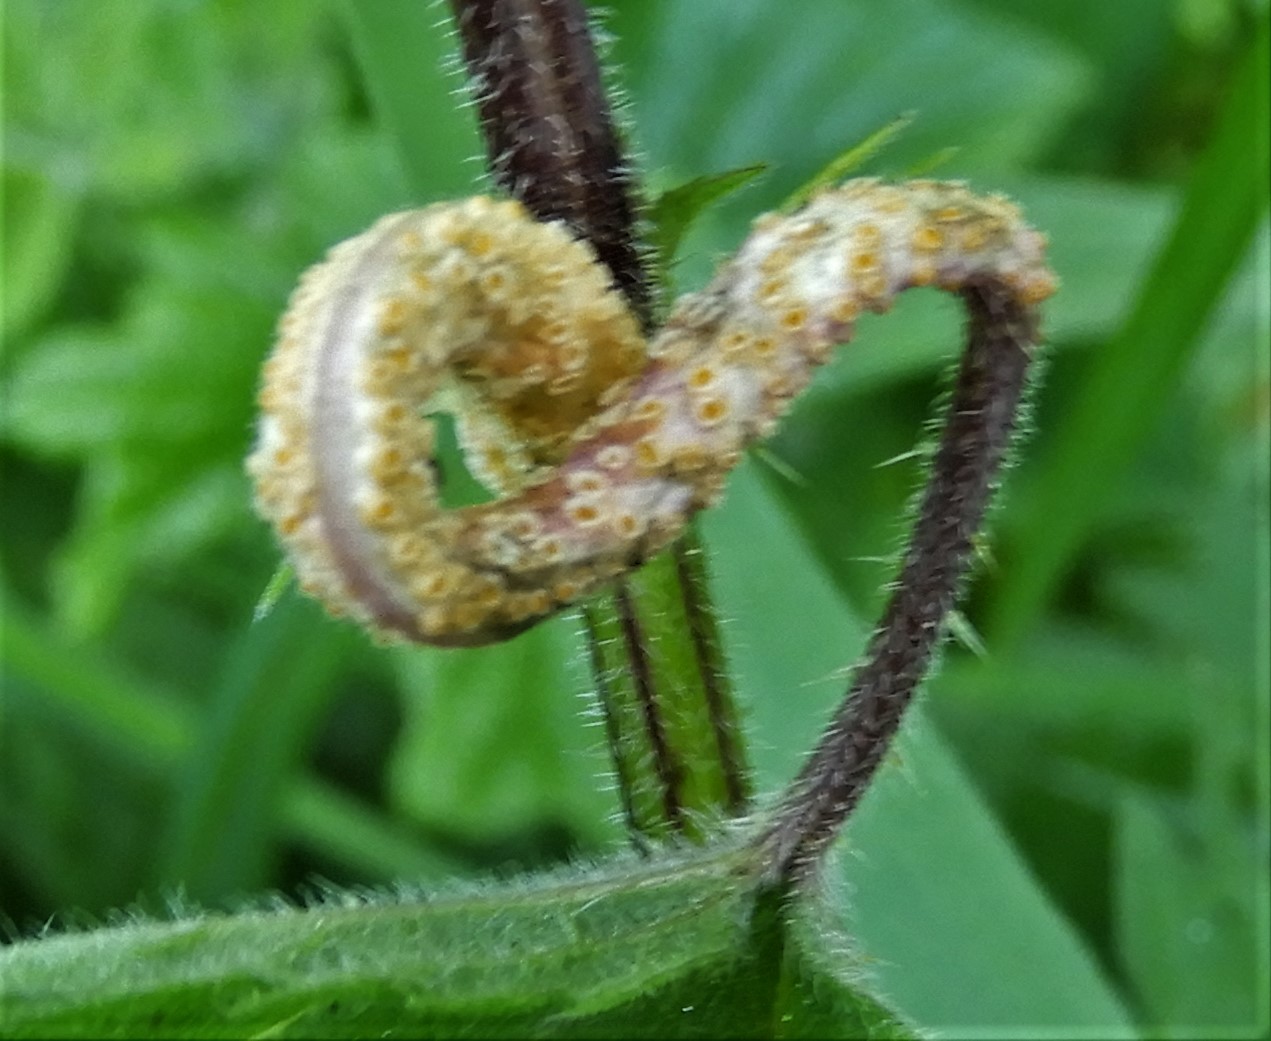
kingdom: Fungi
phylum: Basidiomycota
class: Pucciniomycetes
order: Pucciniales
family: Pucciniaceae
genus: Puccinia
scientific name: Puccinia urticata
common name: nældegalle-tvecellerust
